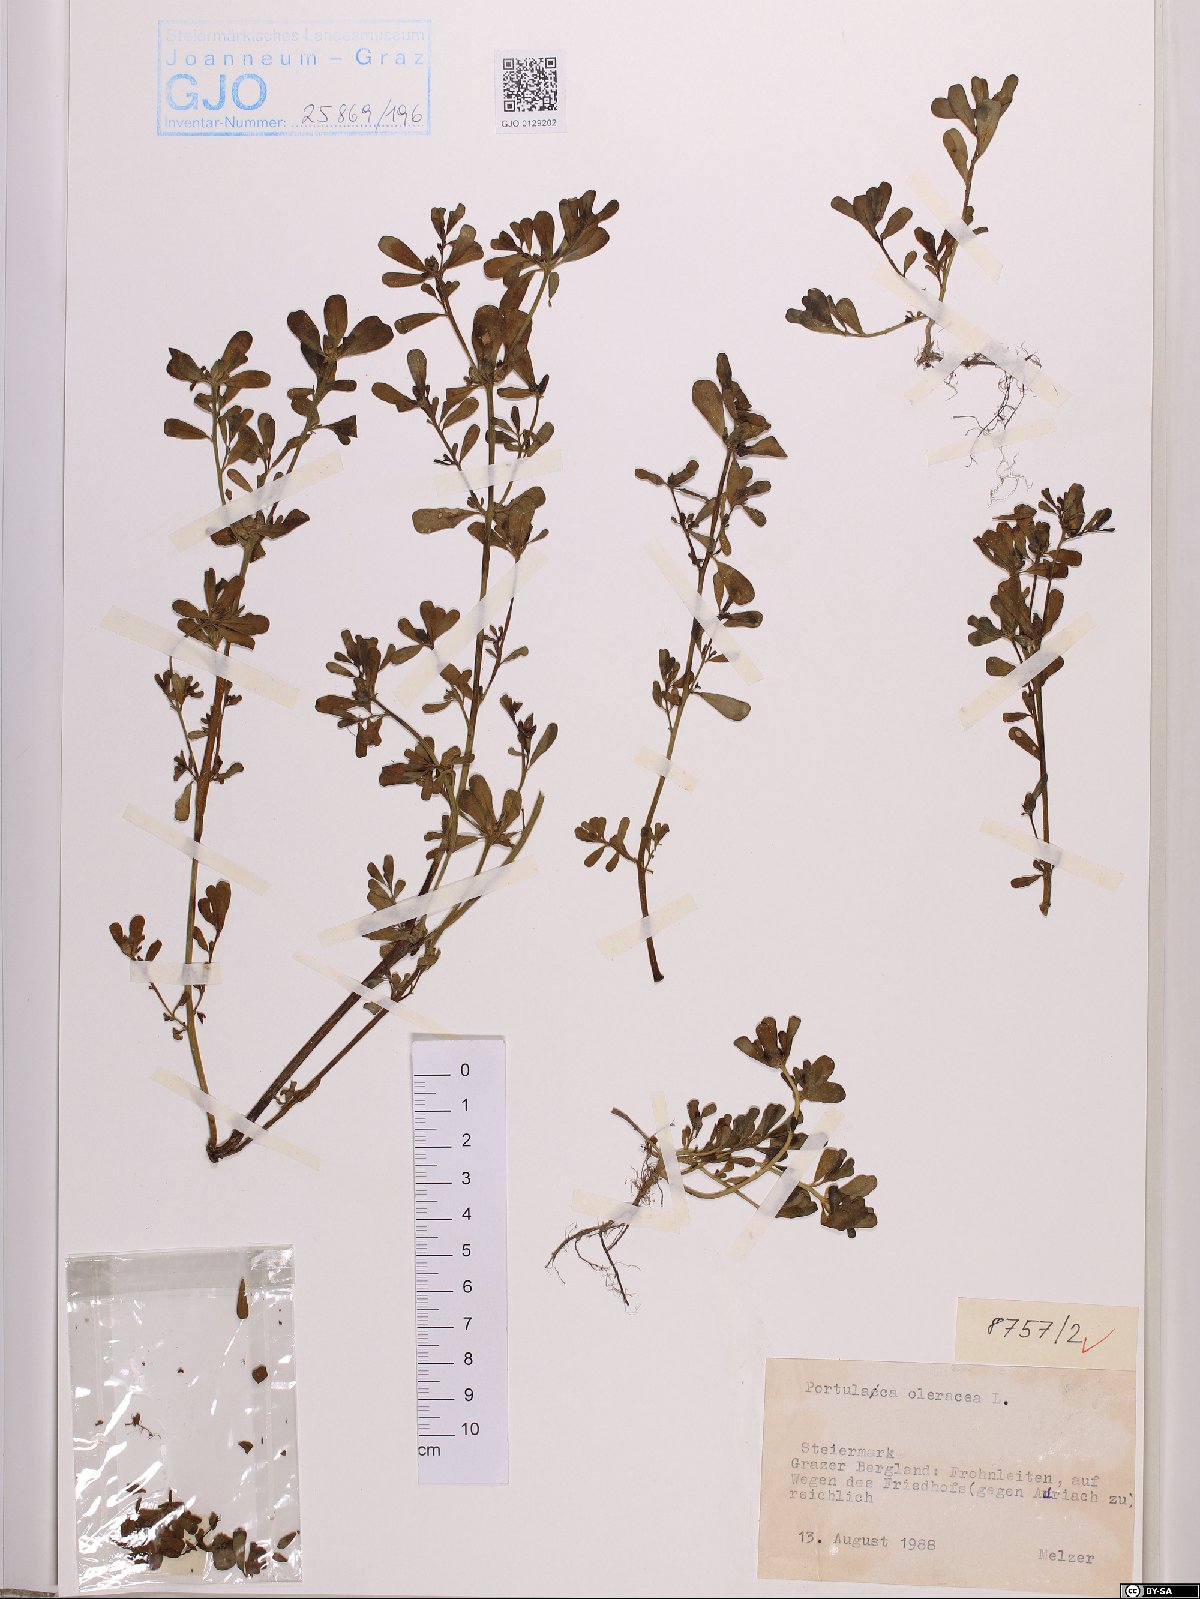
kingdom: Plantae
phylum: Tracheophyta
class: Magnoliopsida
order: Caryophyllales
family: Portulacaceae
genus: Portulaca
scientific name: Portulaca oleracea
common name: Common purslane
